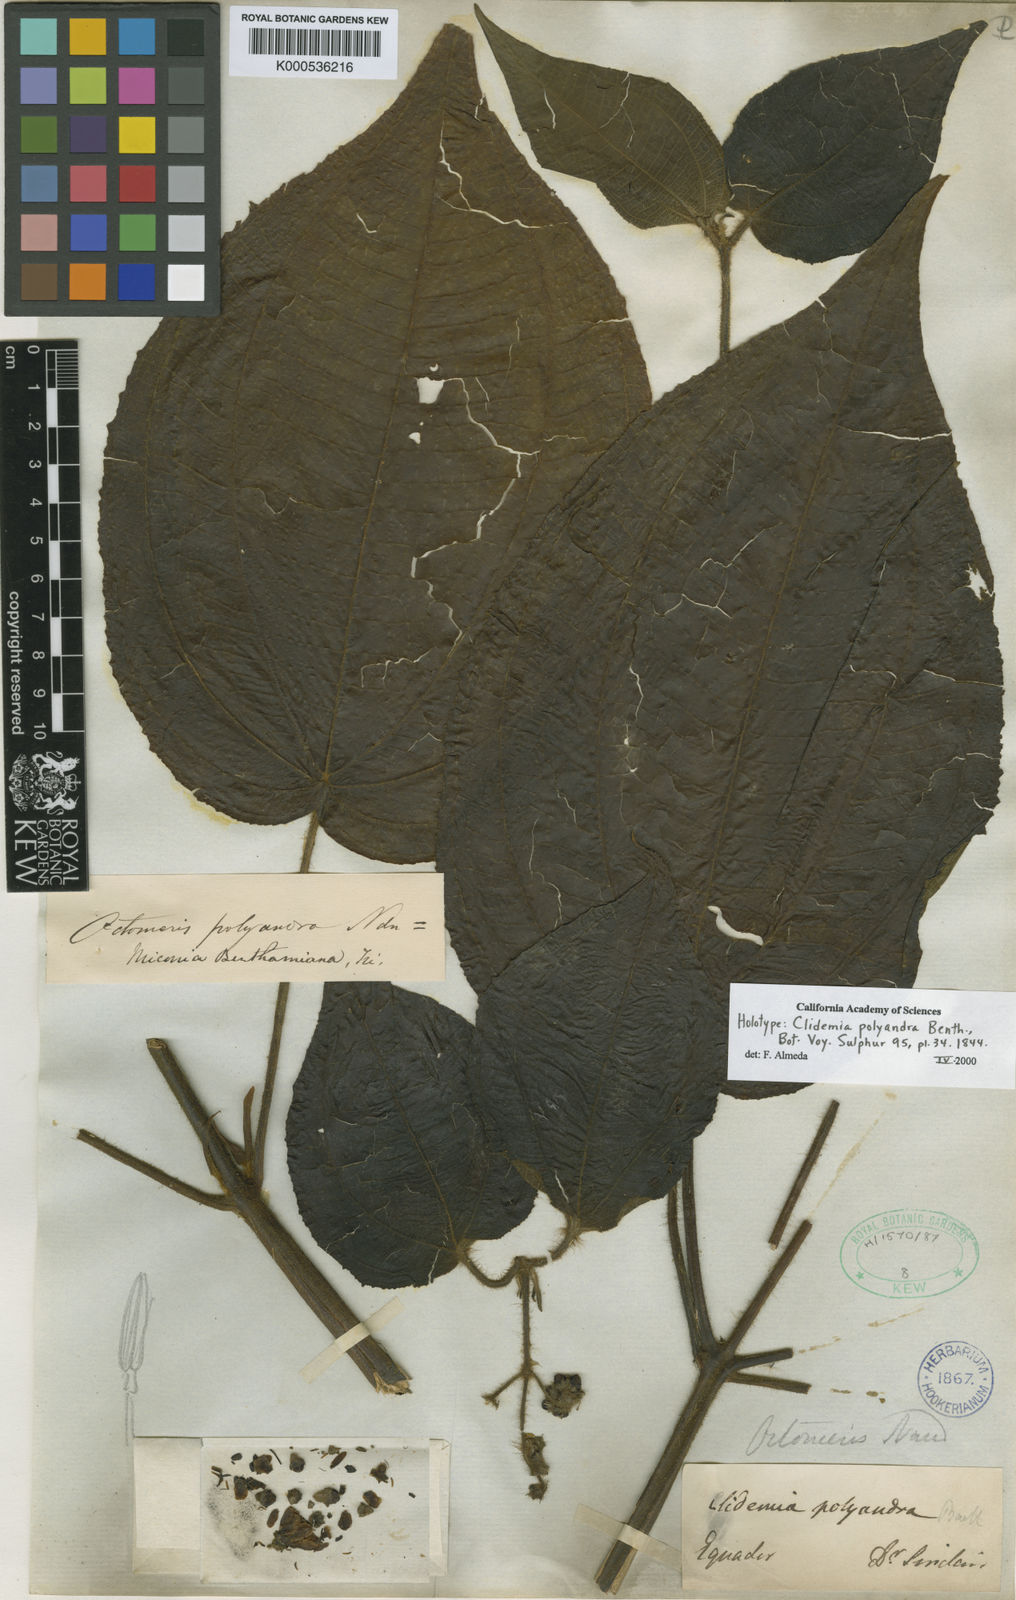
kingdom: Plantae
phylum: Tracheophyta
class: Magnoliopsida
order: Myrtales
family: Melastomataceae
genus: Miconia
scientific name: Miconia benthamiana
